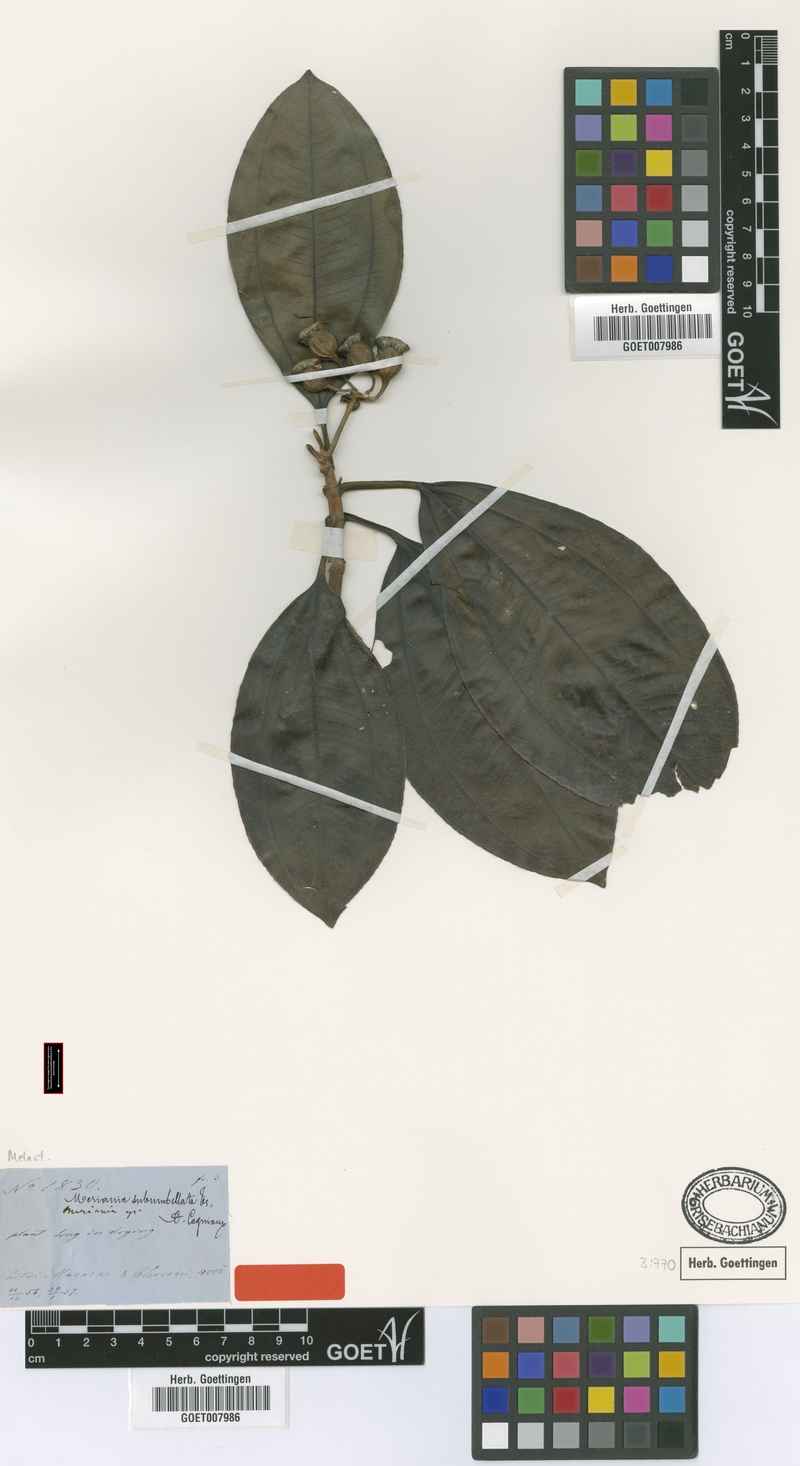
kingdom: Plantae
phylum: Tracheophyta
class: Magnoliopsida
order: Myrtales
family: Melastomataceae
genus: Meriania
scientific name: Meriania subumbellata
